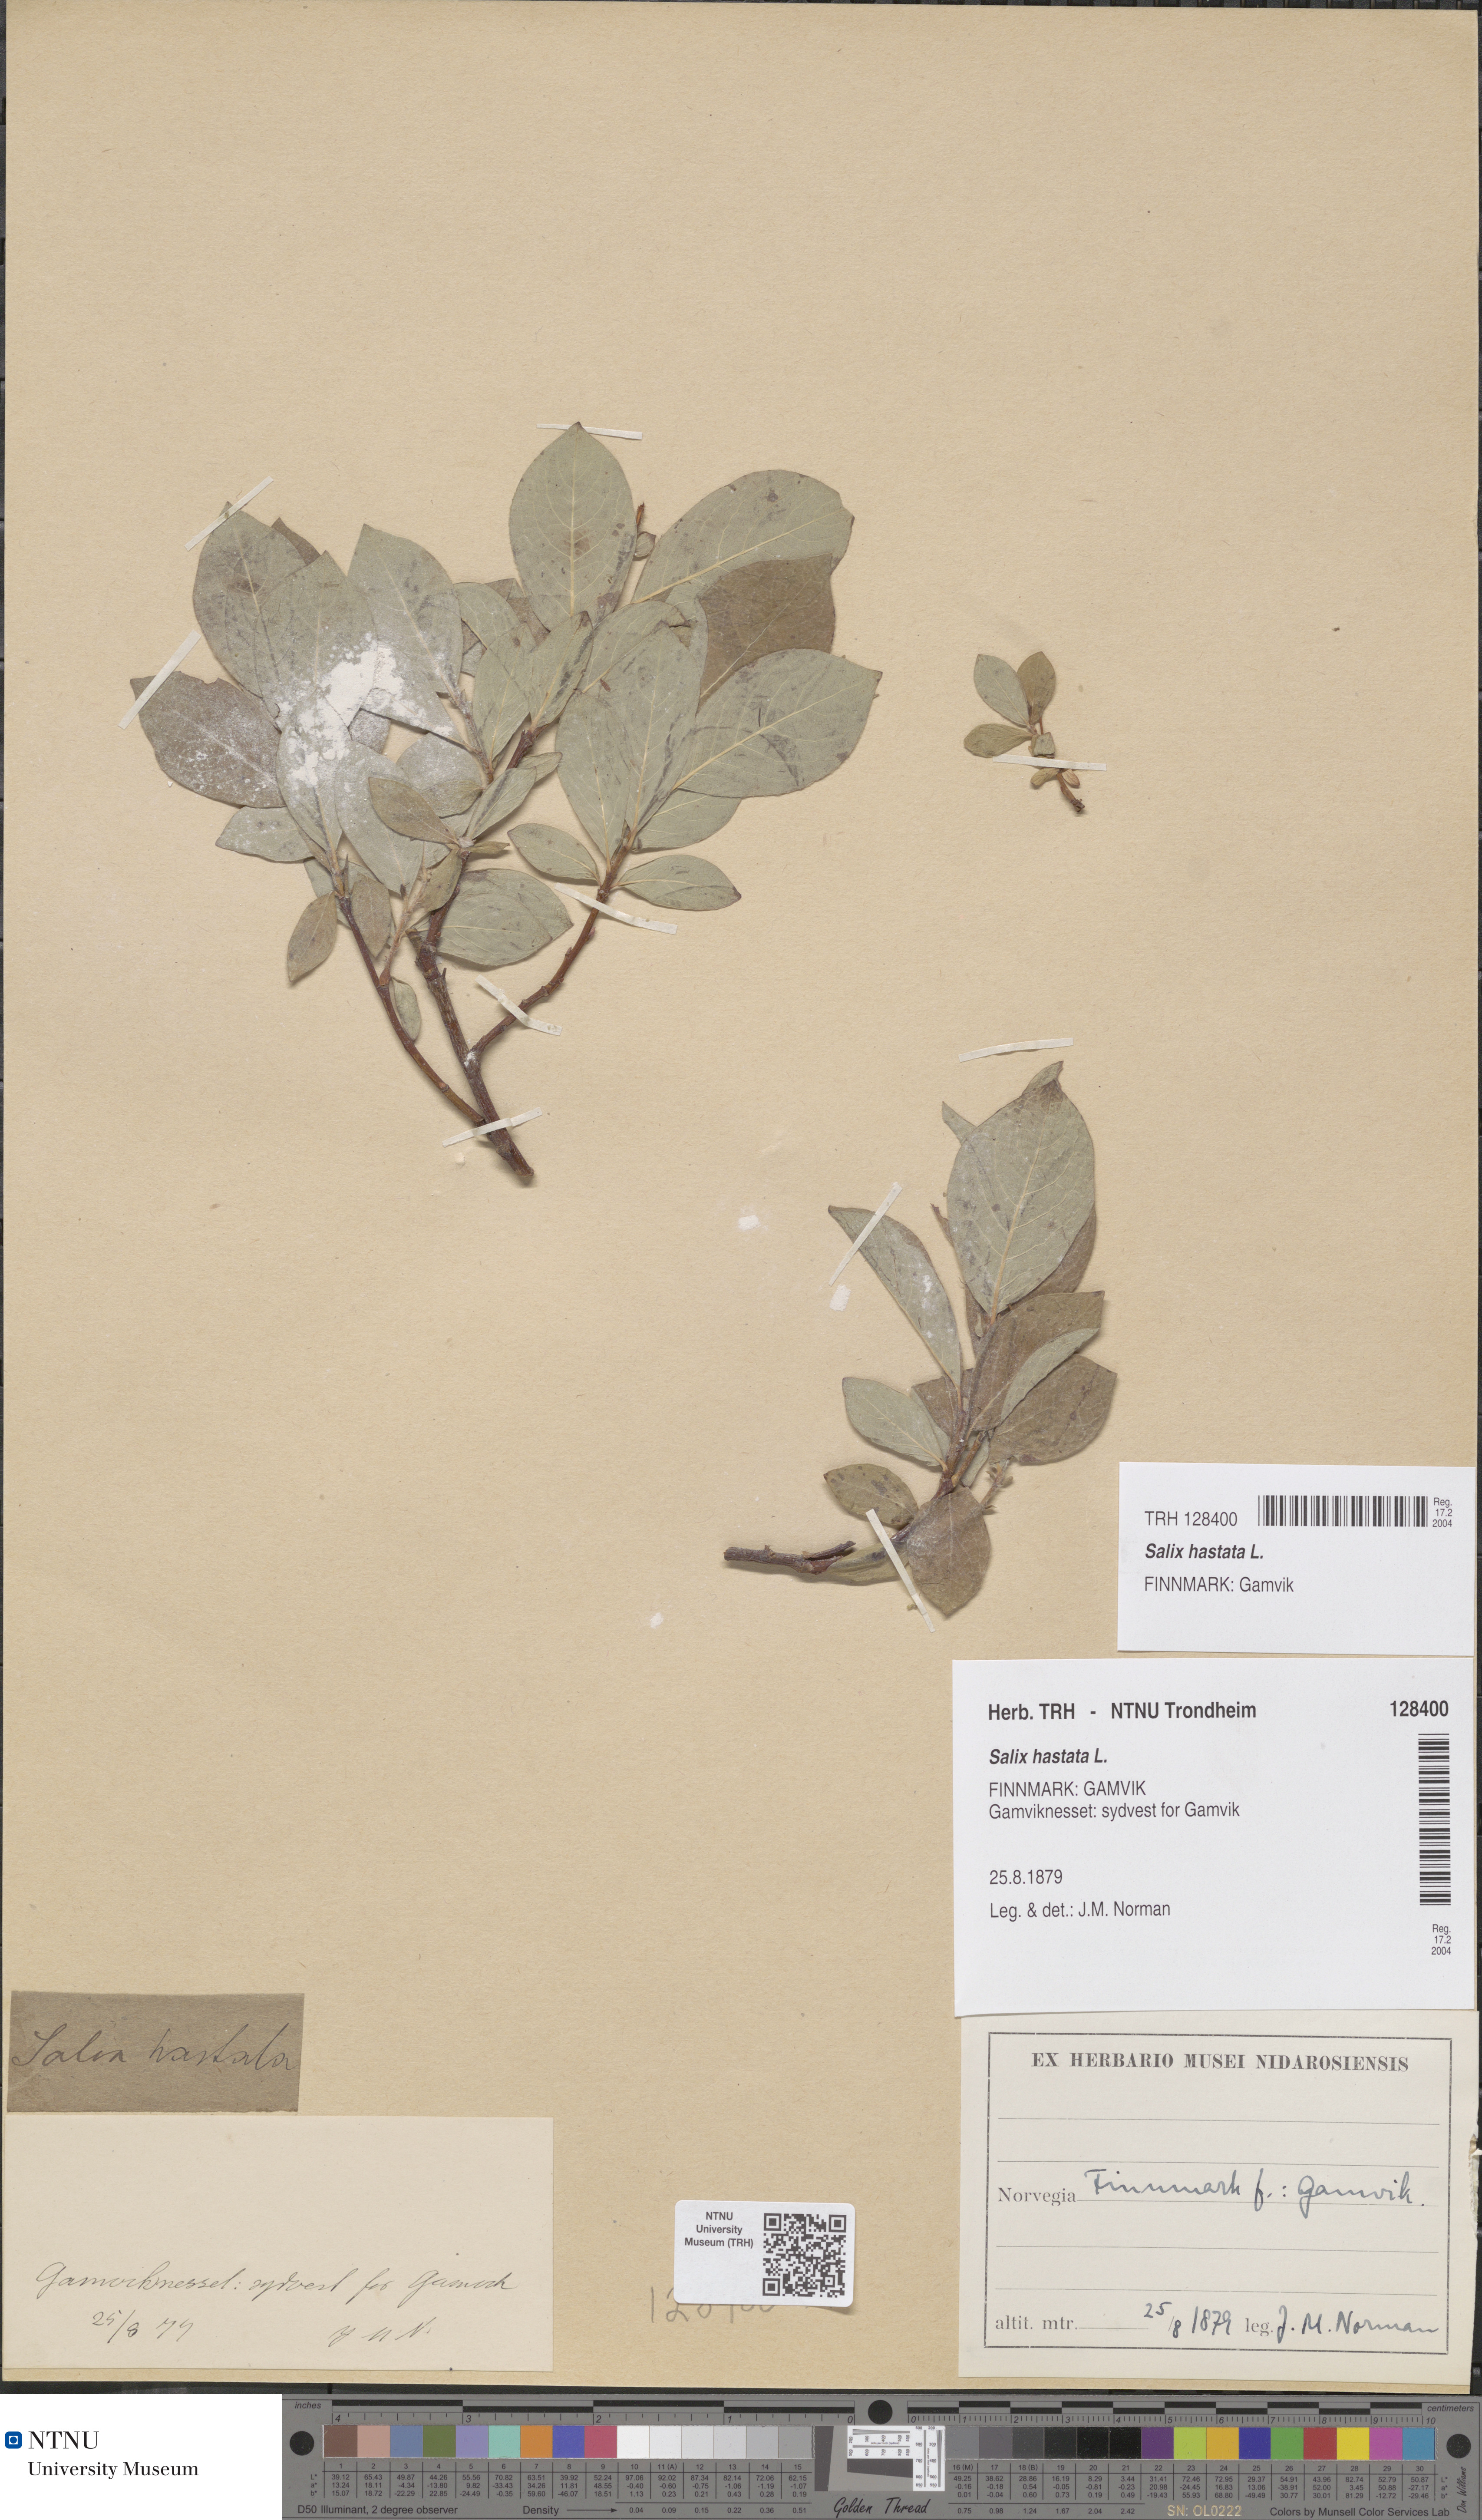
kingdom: Plantae
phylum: Tracheophyta
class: Magnoliopsida
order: Malpighiales
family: Salicaceae
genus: Salix
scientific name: Salix hastata
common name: Halberd willow
